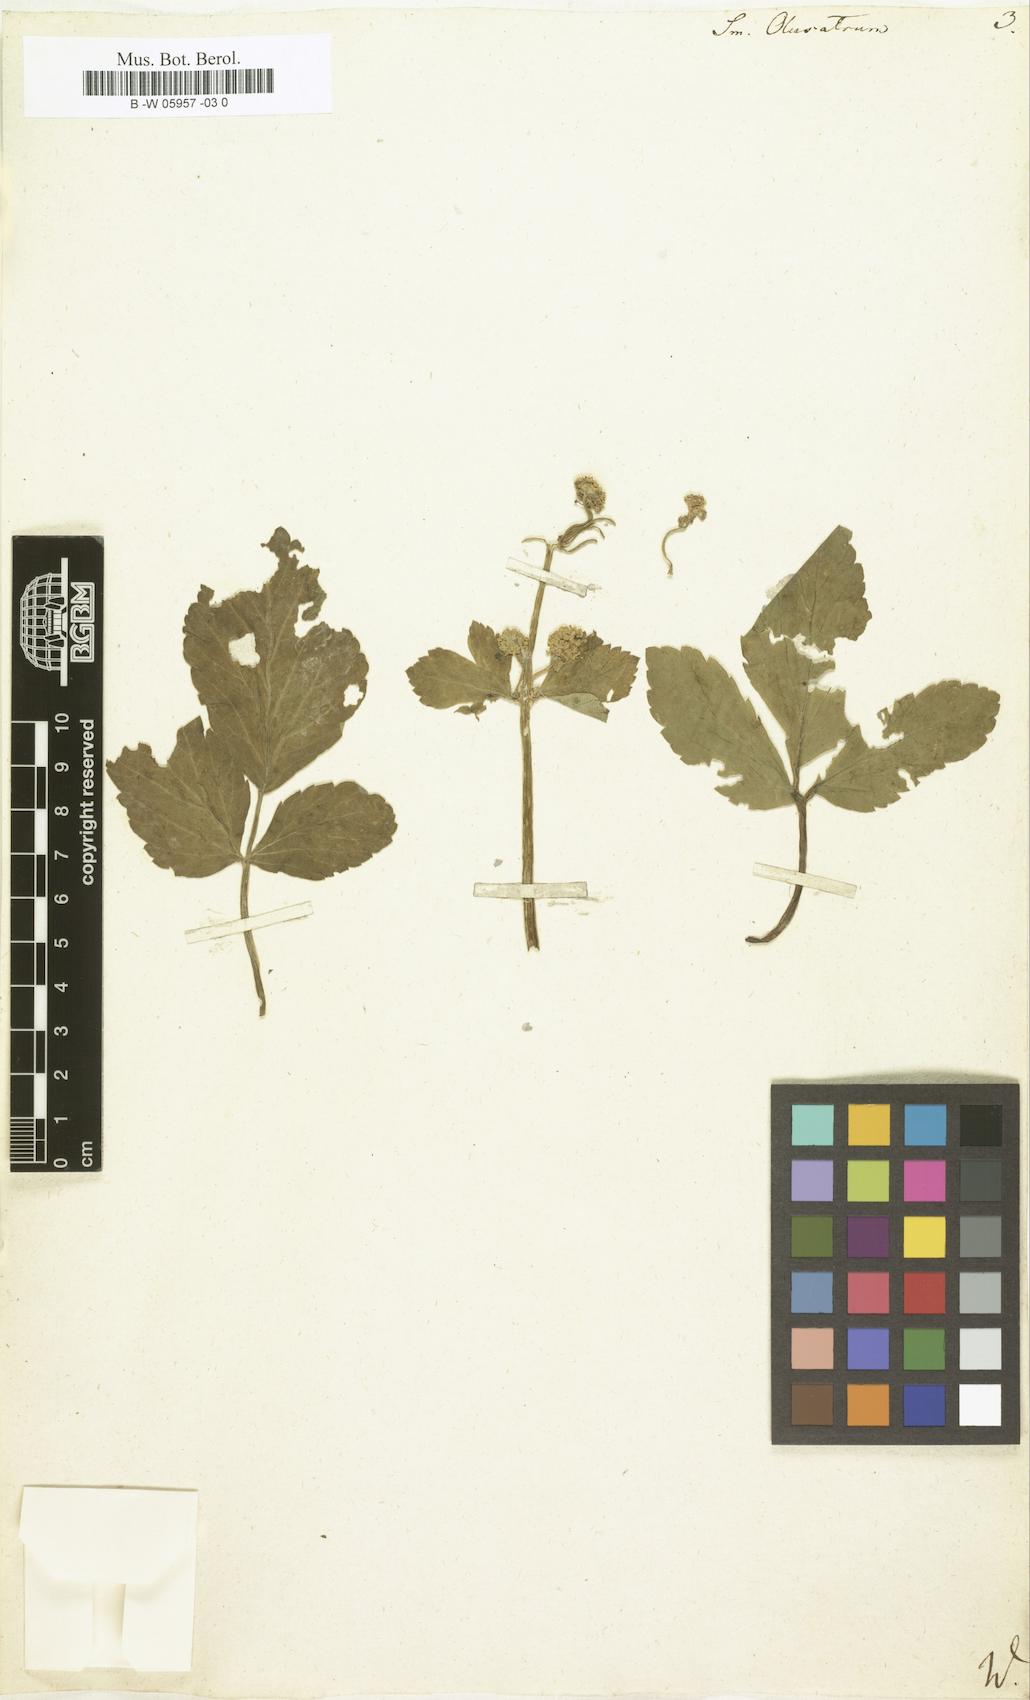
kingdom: Plantae
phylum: Tracheophyta
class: Magnoliopsida
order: Apiales
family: Apiaceae
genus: Smyrnium
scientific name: Smyrnium olusatrum
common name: Alexanders
